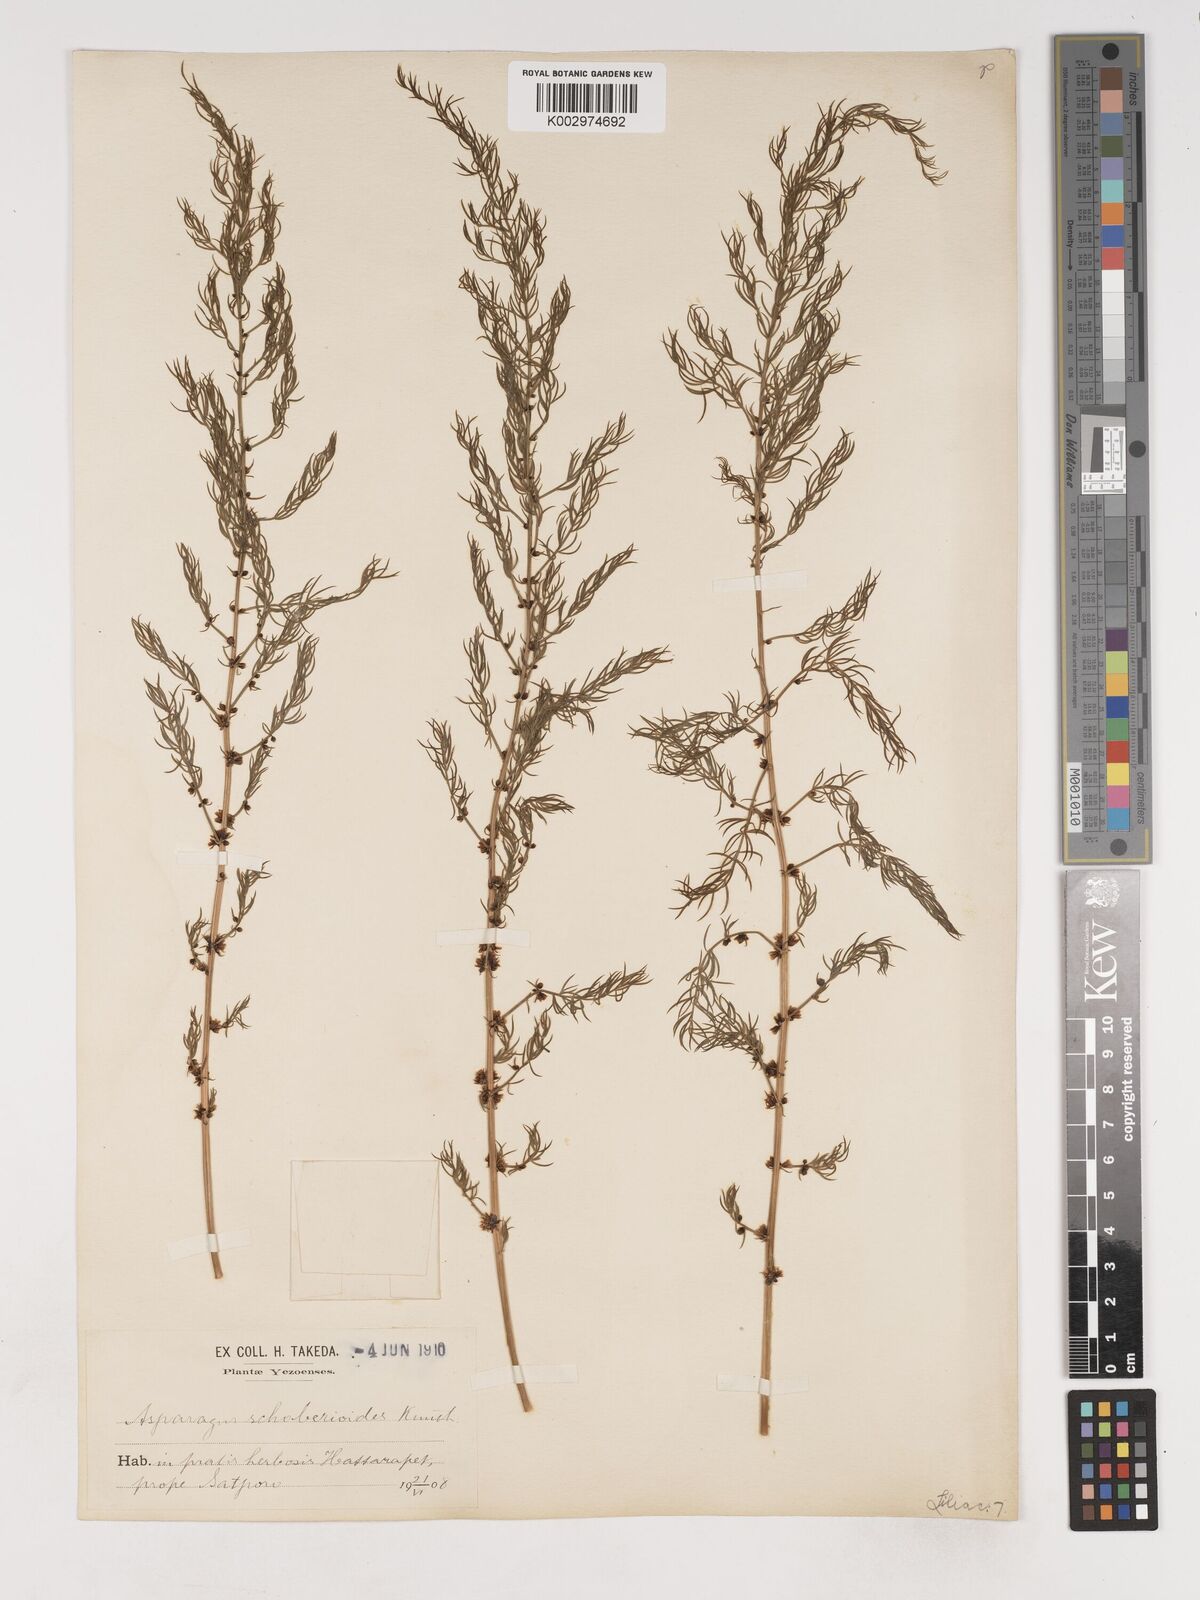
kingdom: Plantae
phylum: Tracheophyta
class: Liliopsida
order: Asparagales
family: Asparagaceae
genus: Asparagus
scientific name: Asparagus schoberioides
